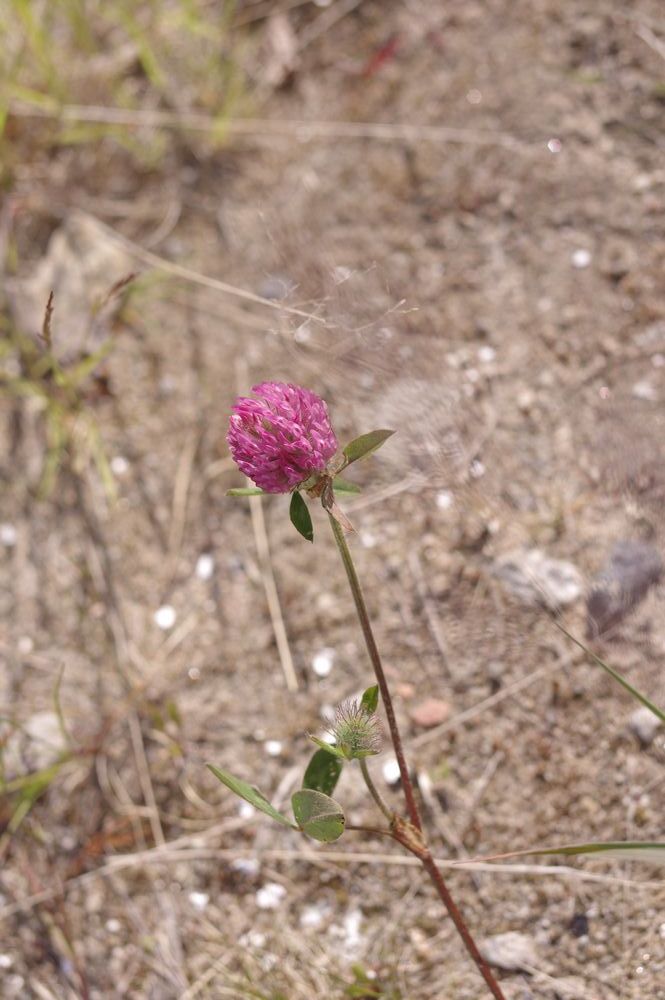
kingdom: Plantae
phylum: Tracheophyta
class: Magnoliopsida
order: Fabales
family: Fabaceae
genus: Trifolium
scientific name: Trifolium pratense
